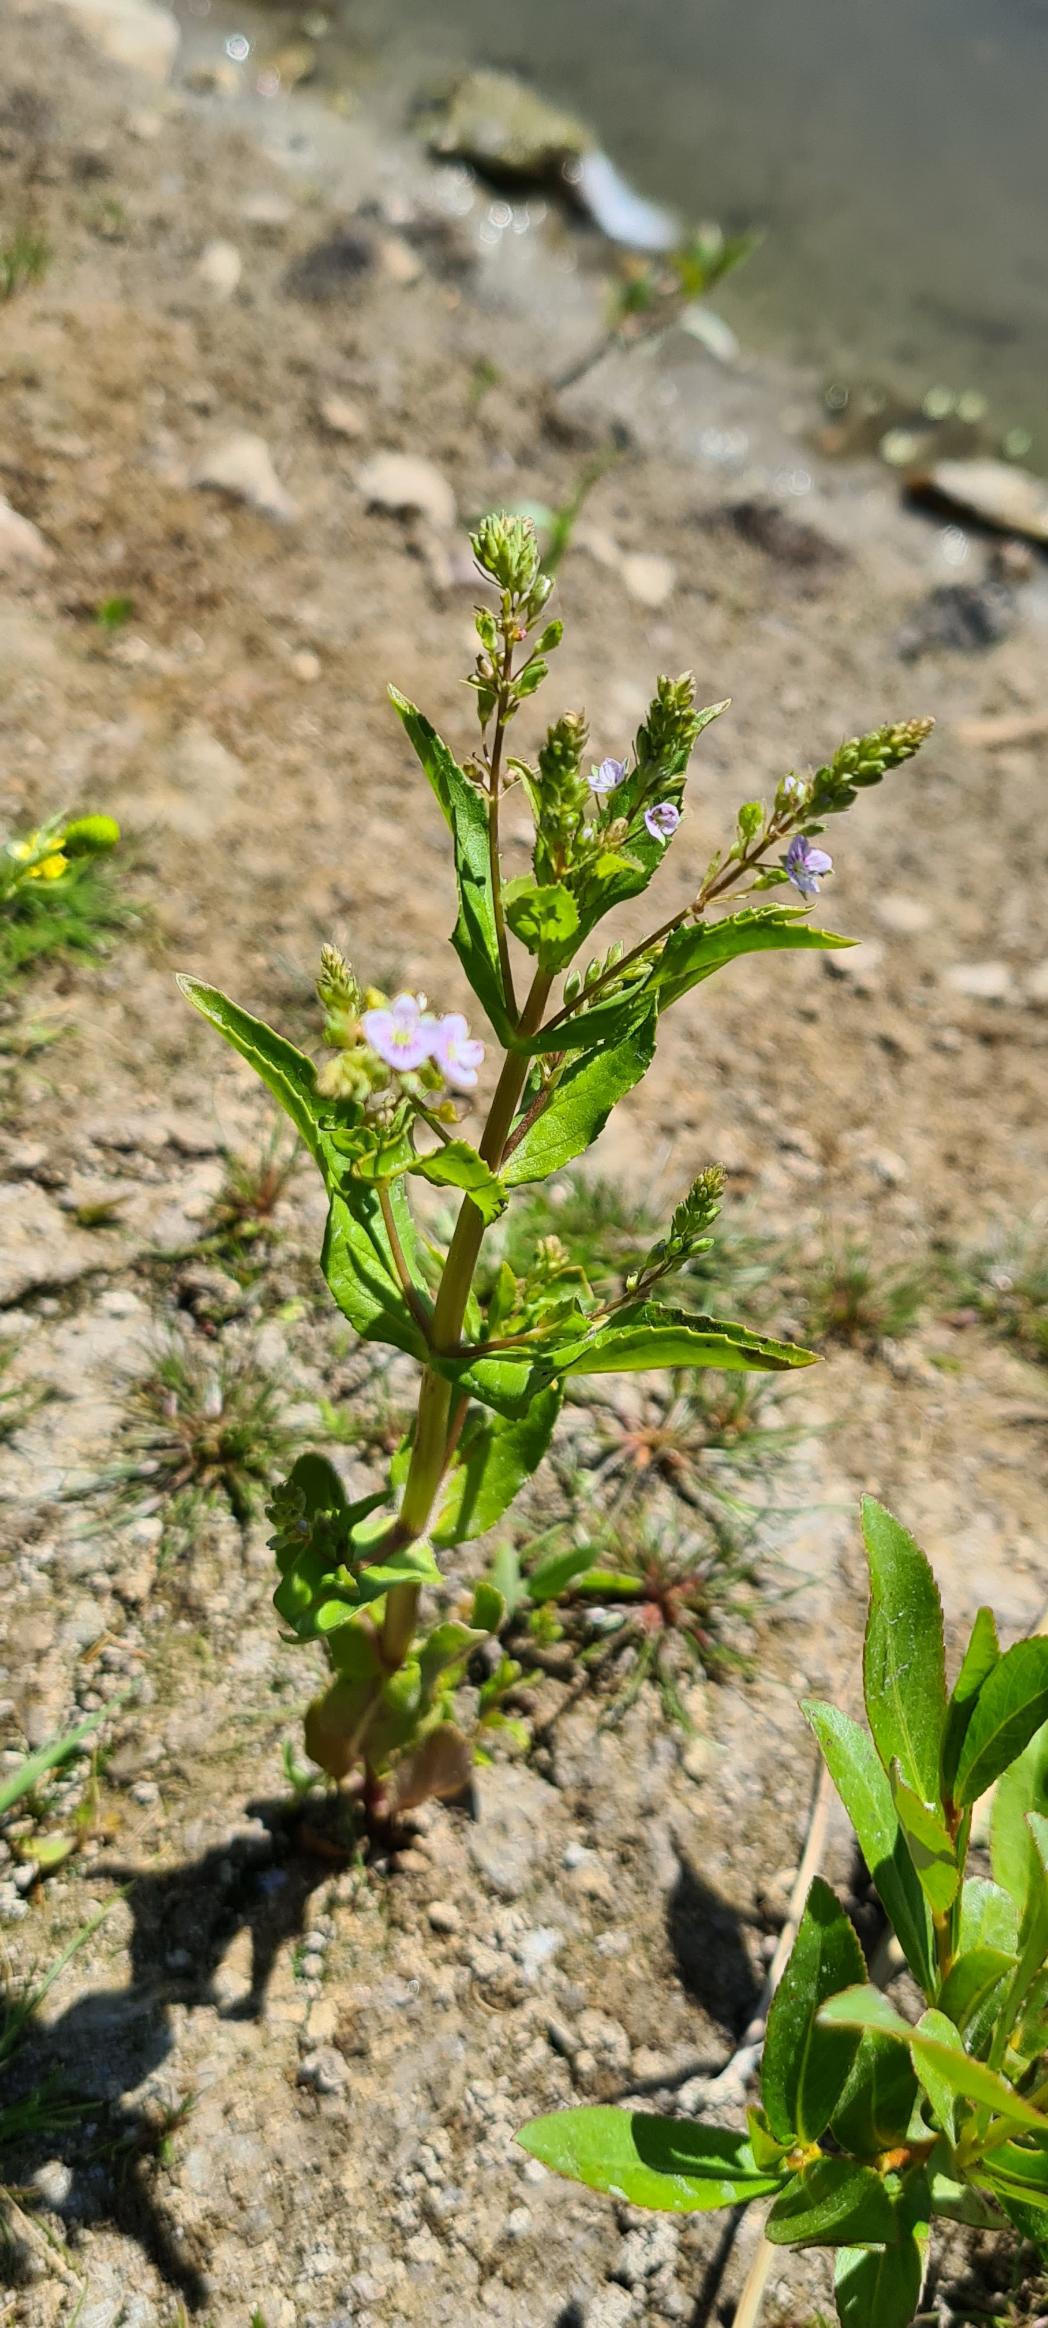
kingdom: Plantae
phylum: Tracheophyta
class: Magnoliopsida
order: Lamiales
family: Plantaginaceae
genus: Veronica
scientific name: Veronica anagallis-aquatica
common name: Lancetbladet ærenpris
